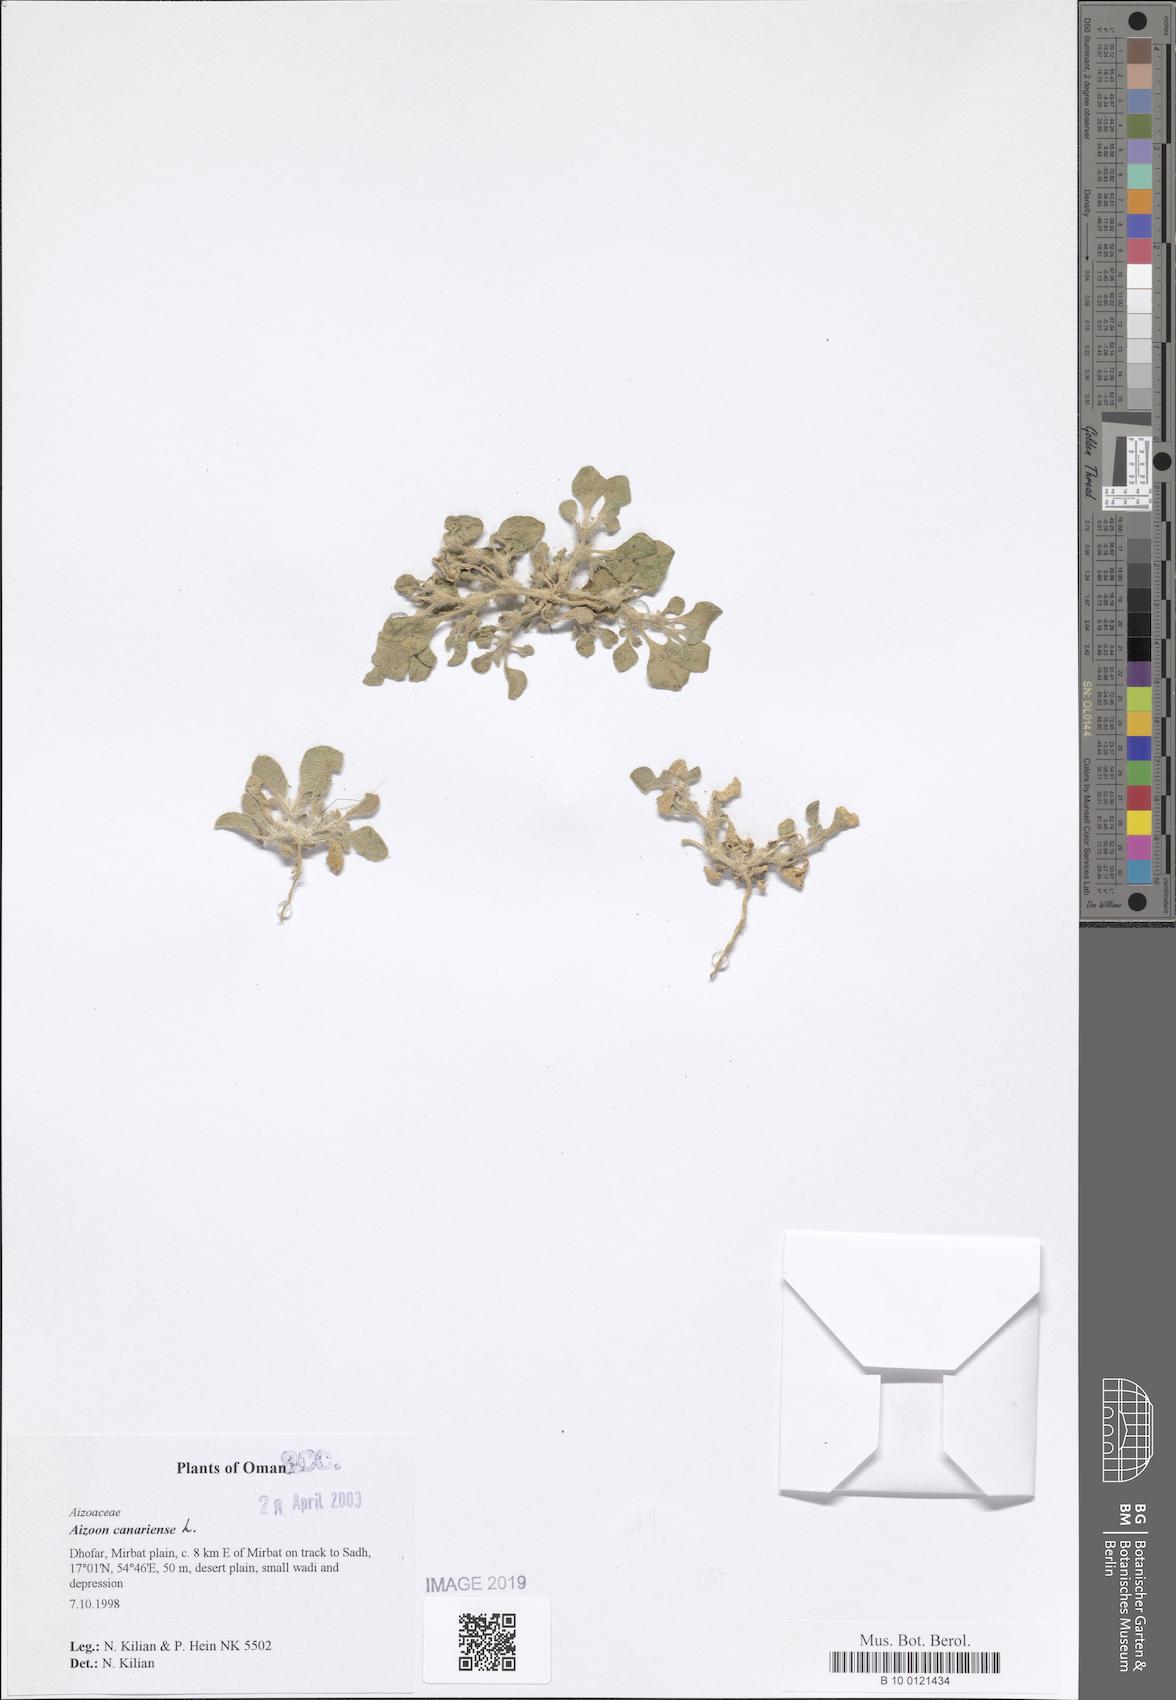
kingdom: Plantae
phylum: Tracheophyta
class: Magnoliopsida
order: Caryophyllales
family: Aizoaceae
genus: Aizoon
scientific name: Aizoon canariense
